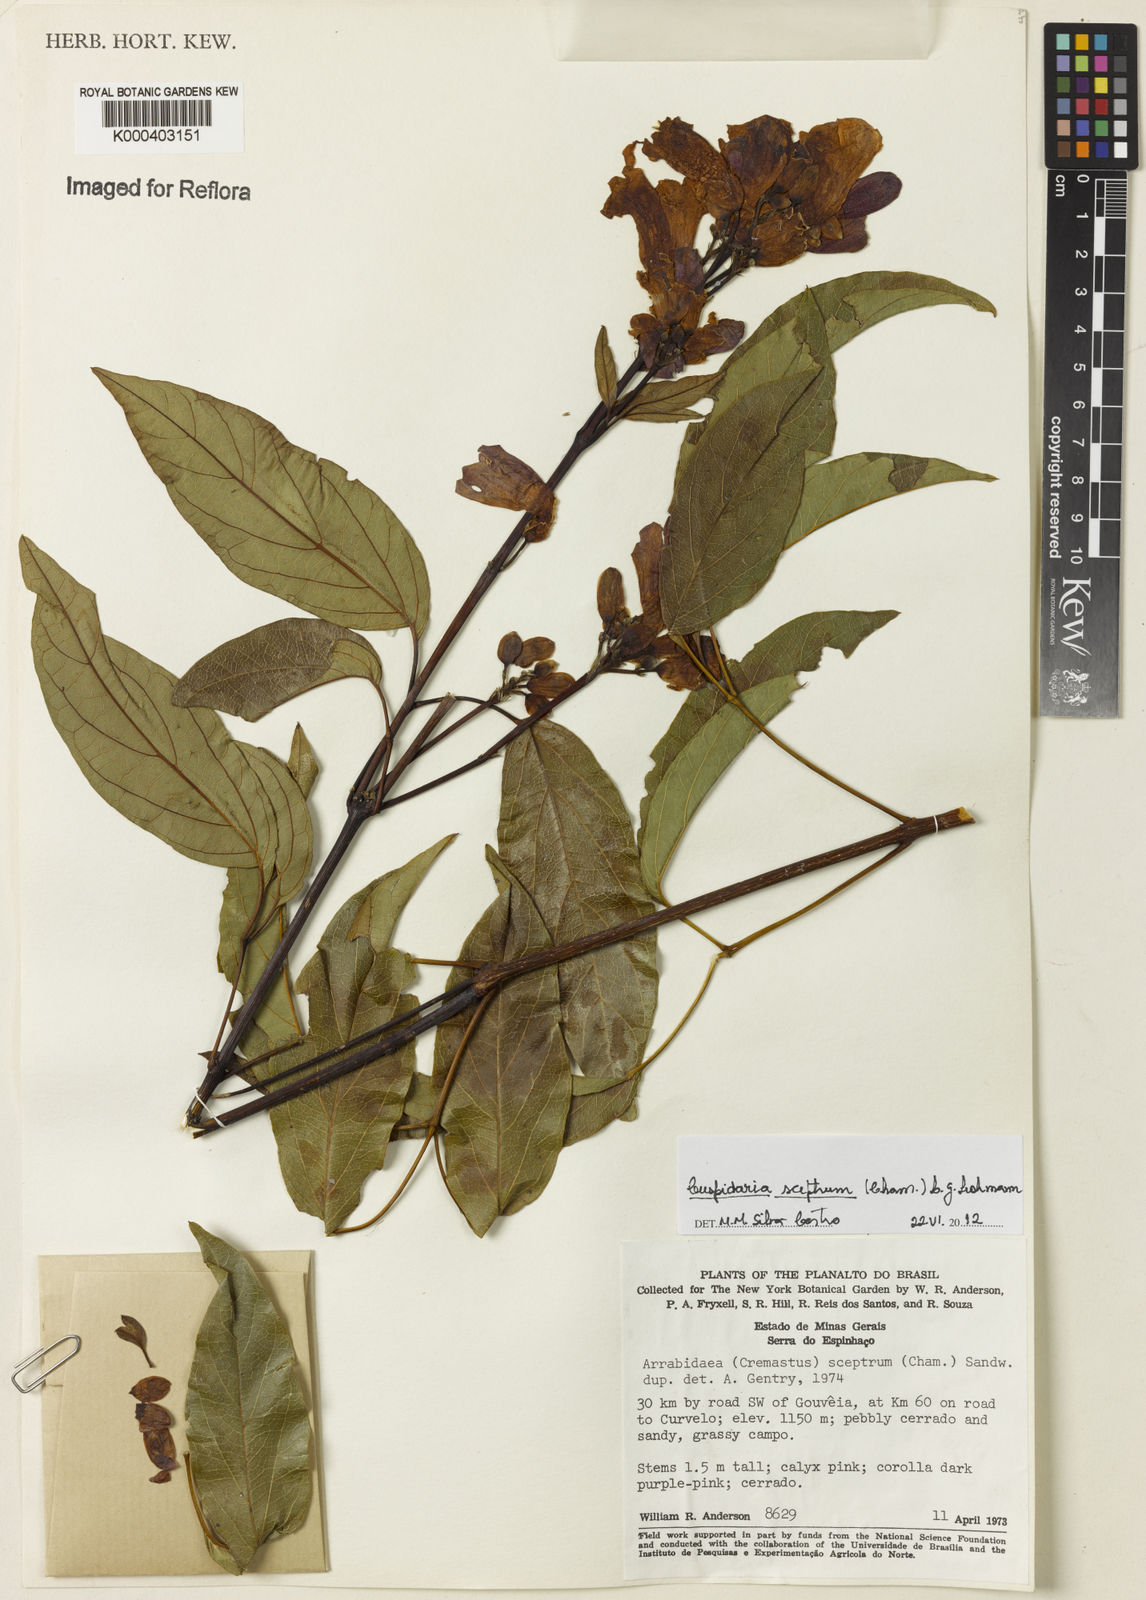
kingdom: Plantae
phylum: Tracheophyta
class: Magnoliopsida
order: Lamiales
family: Bignoniaceae
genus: Cuspidaria
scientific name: Cuspidaria sceptrum
